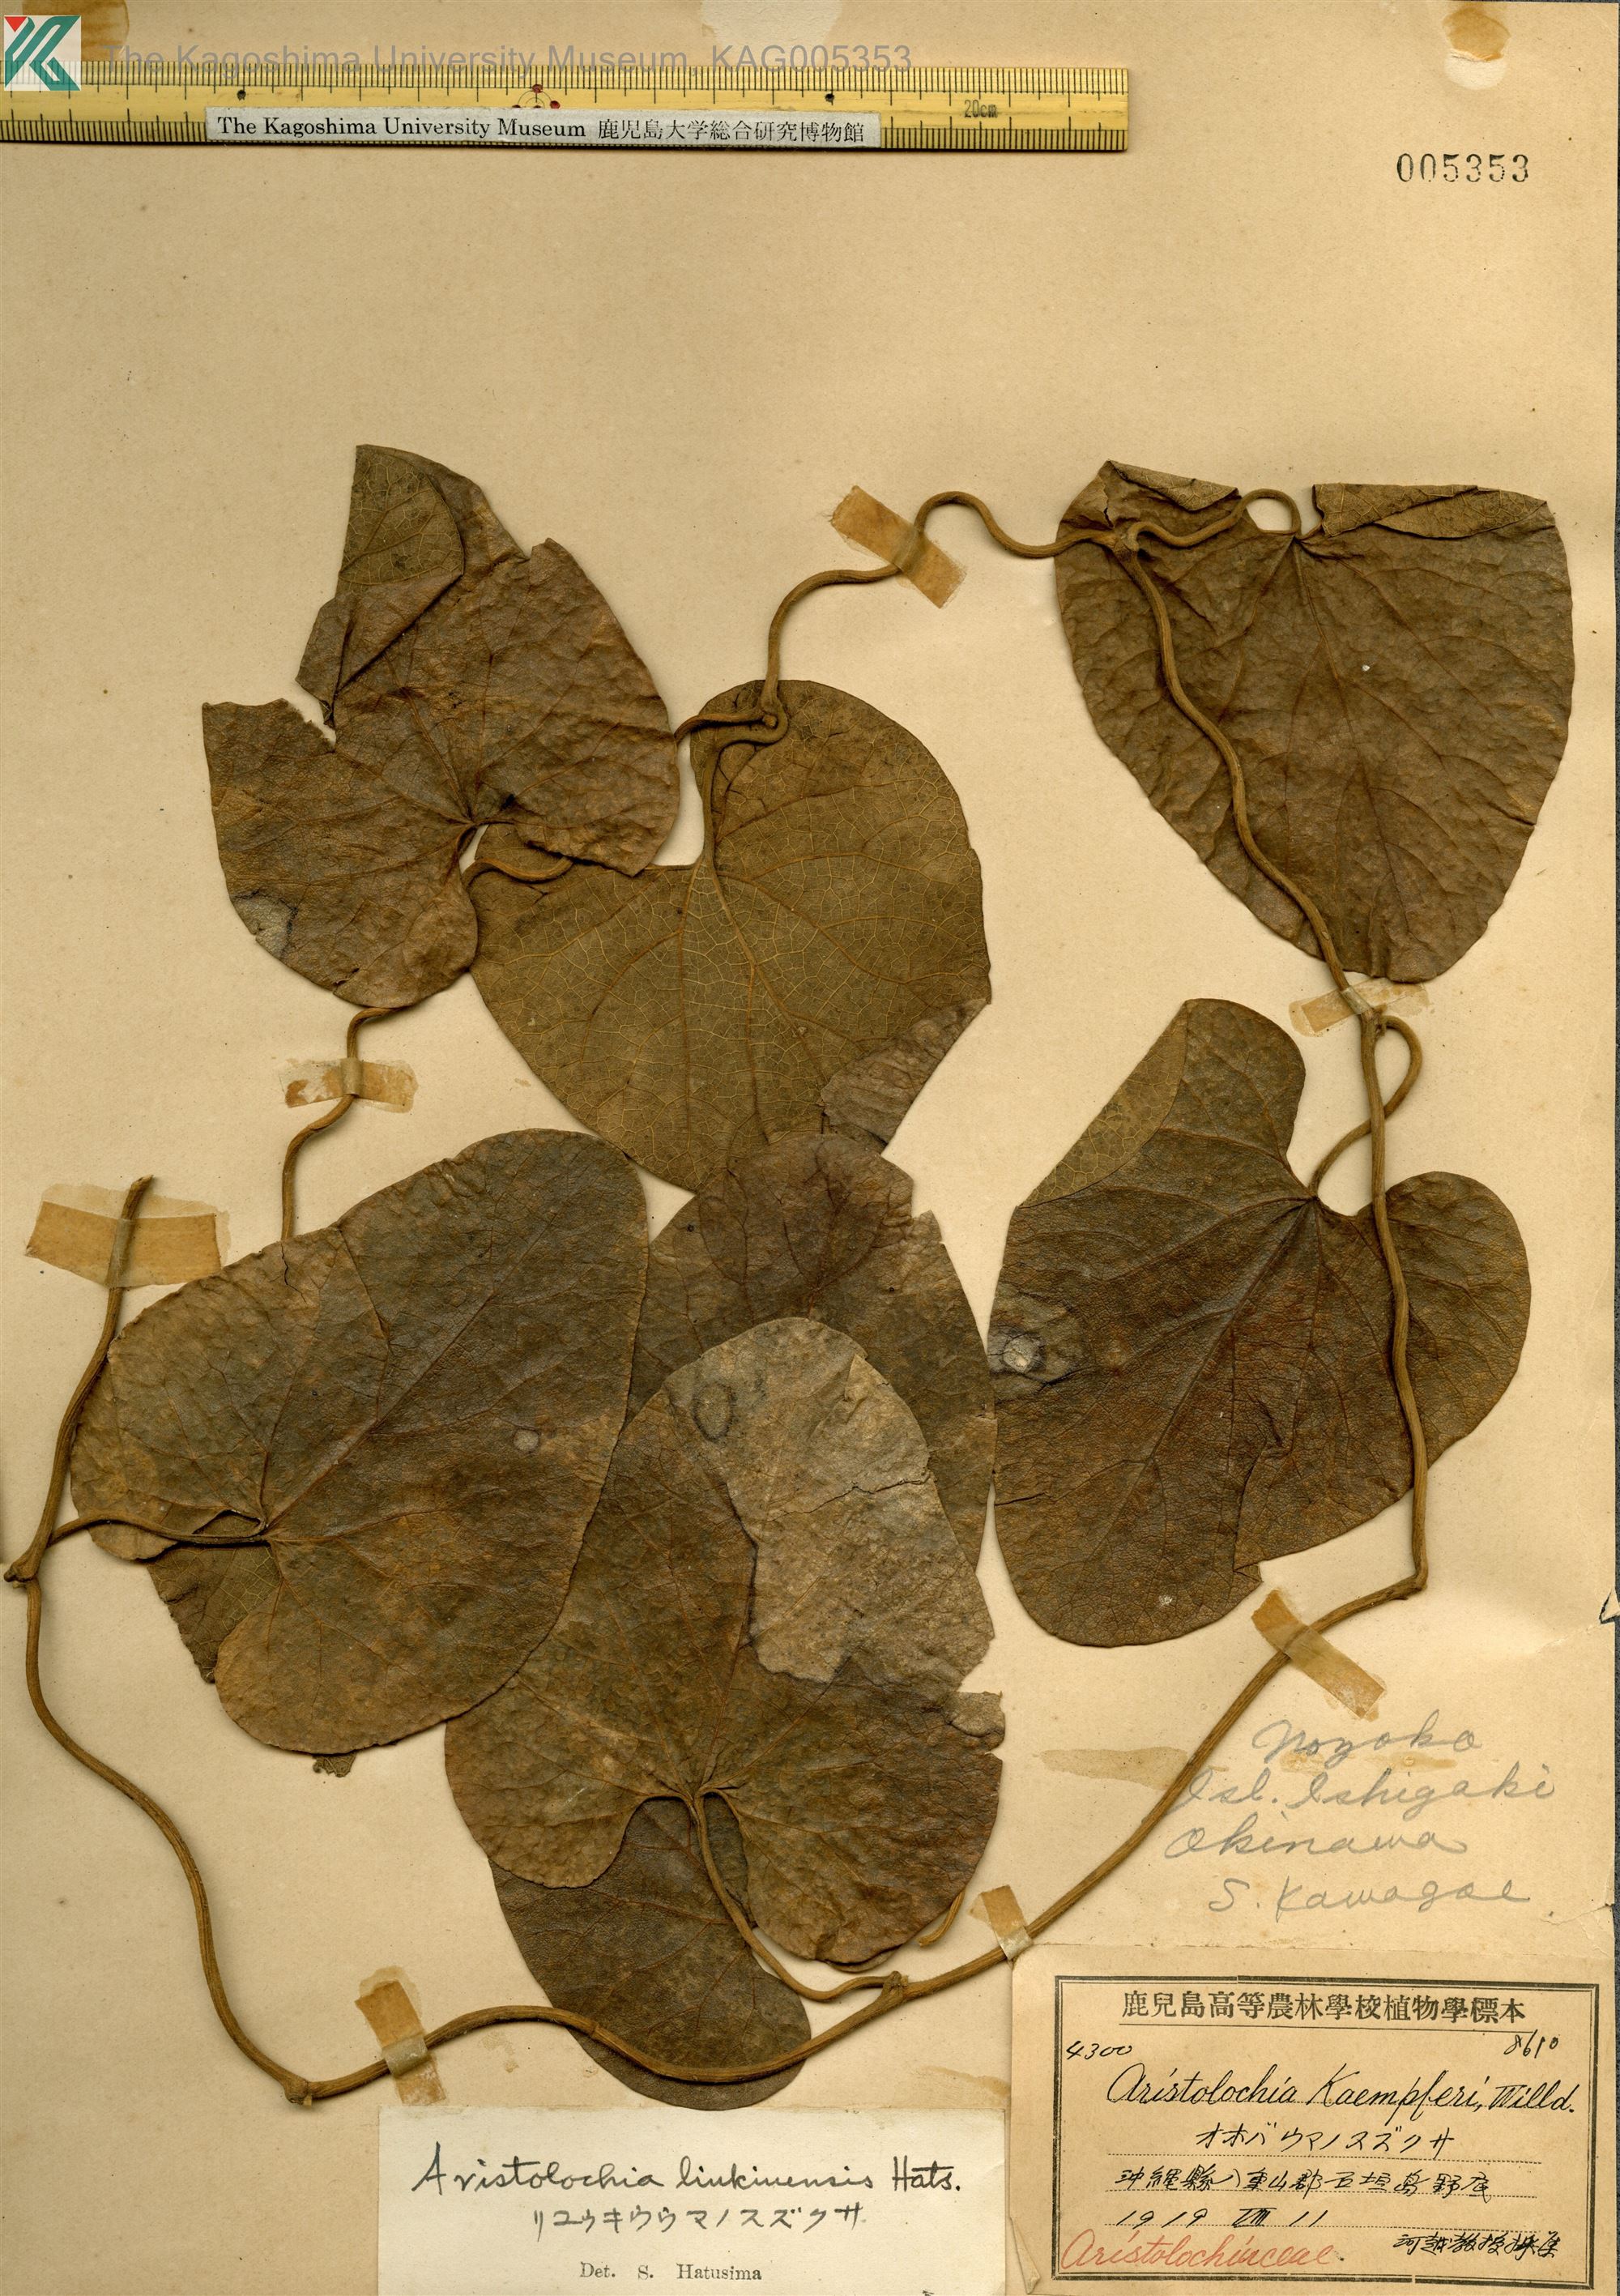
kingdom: Plantae
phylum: Tracheophyta
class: Magnoliopsida
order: Piperales
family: Aristolochiaceae
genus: Isotrema
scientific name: Isotrema liukiuense
